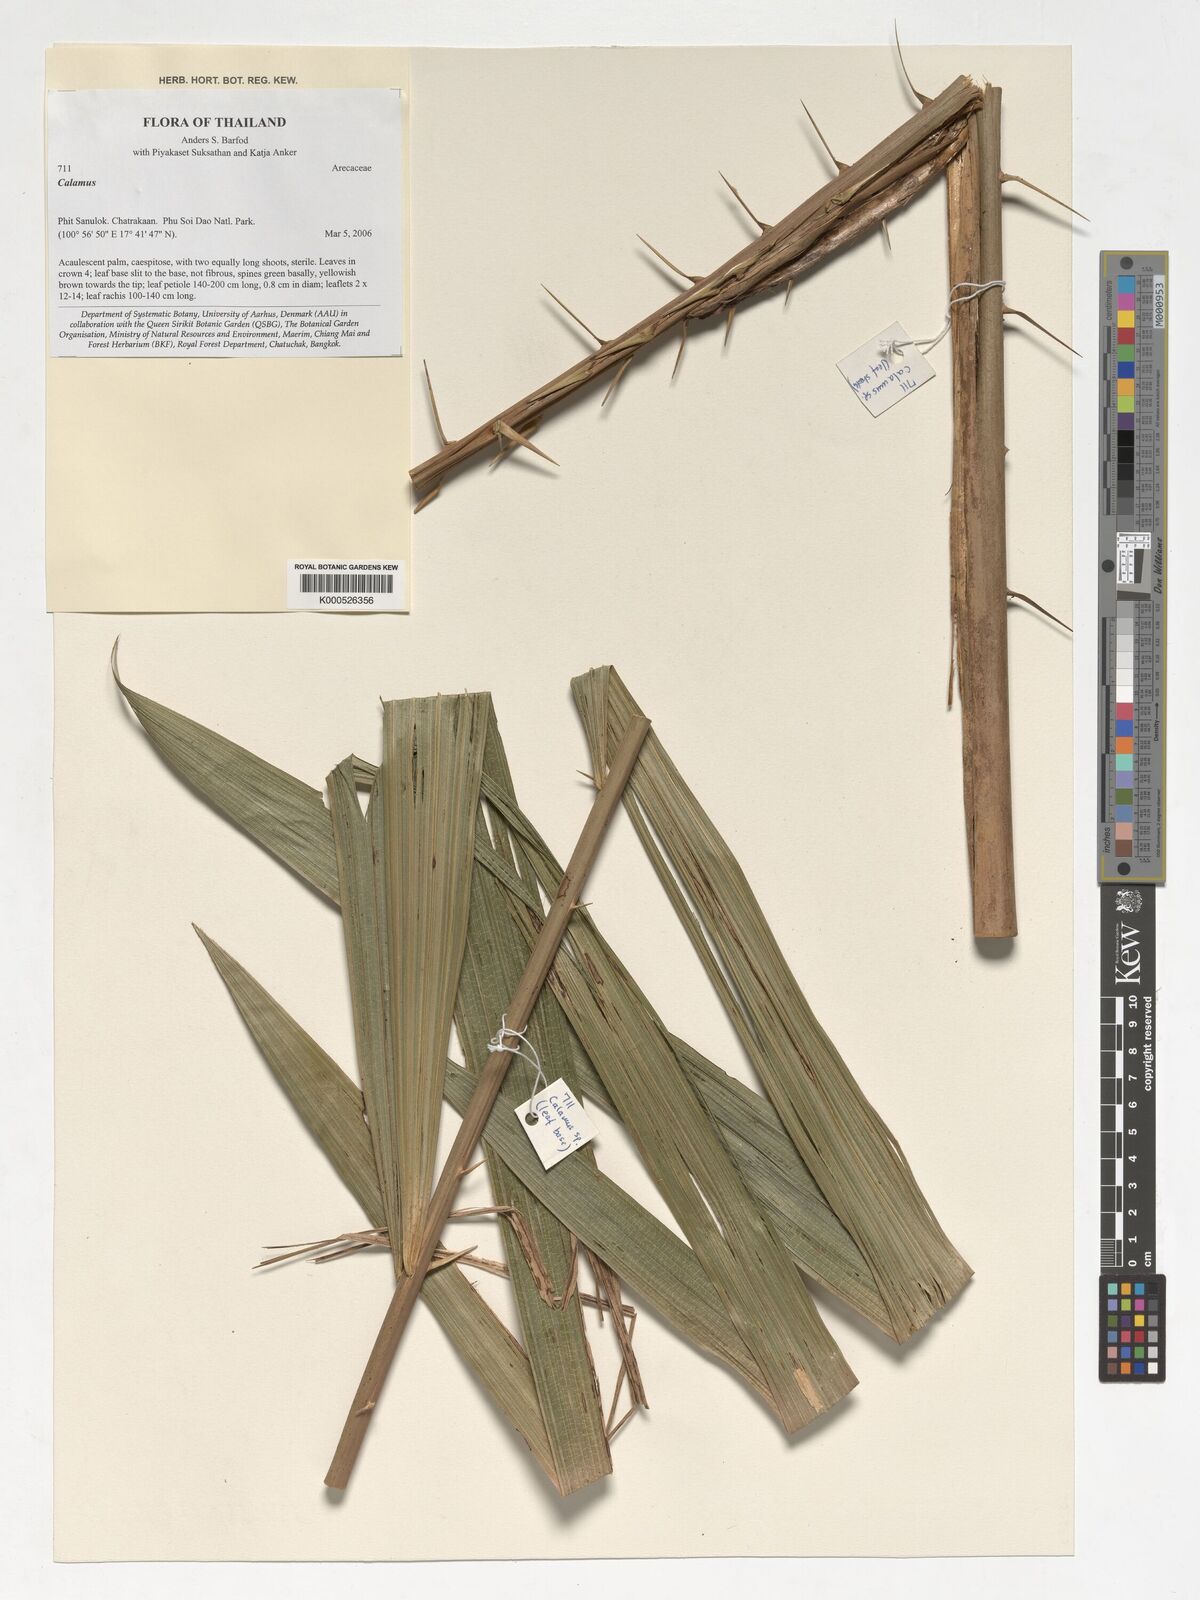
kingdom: Plantae
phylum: Tracheophyta
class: Liliopsida
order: Arecales
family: Arecaceae
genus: Calamus
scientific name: Calamus
